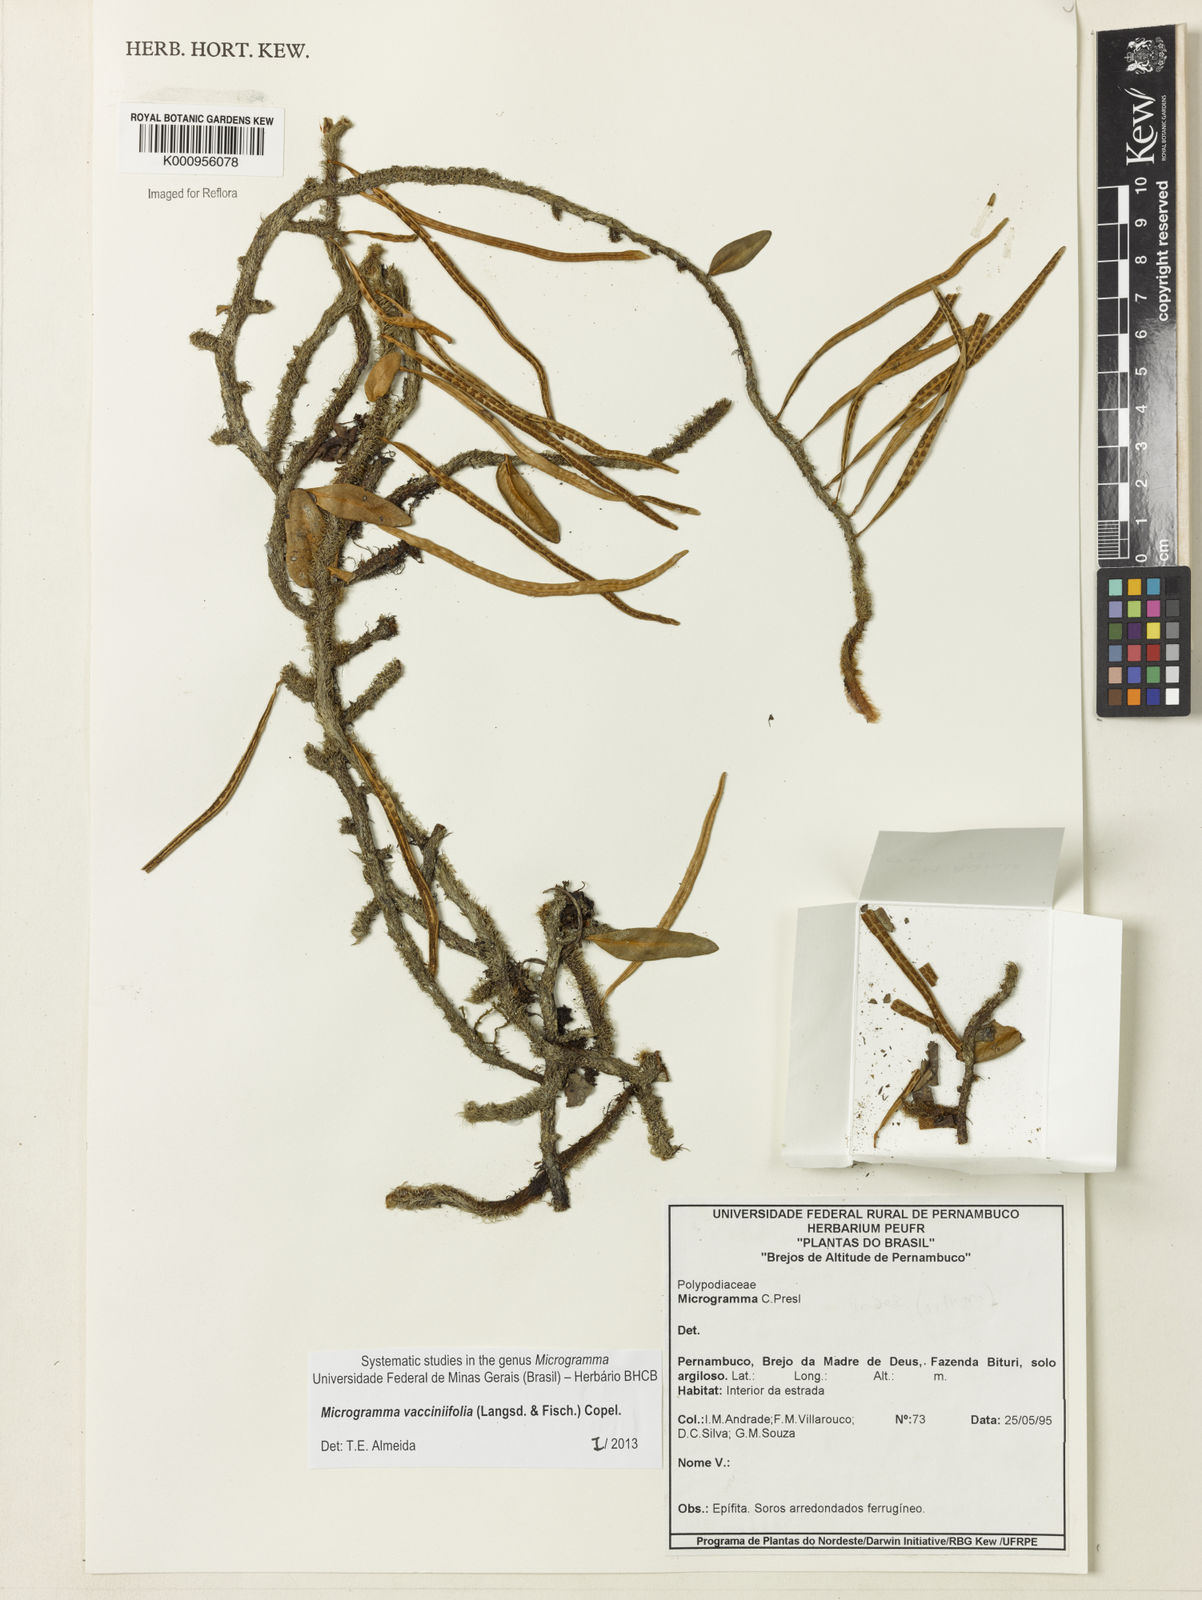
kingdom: Plantae
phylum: Tracheophyta
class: Polypodiopsida
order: Polypodiales
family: Polypodiaceae
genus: Phlebodium
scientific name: Phlebodium
